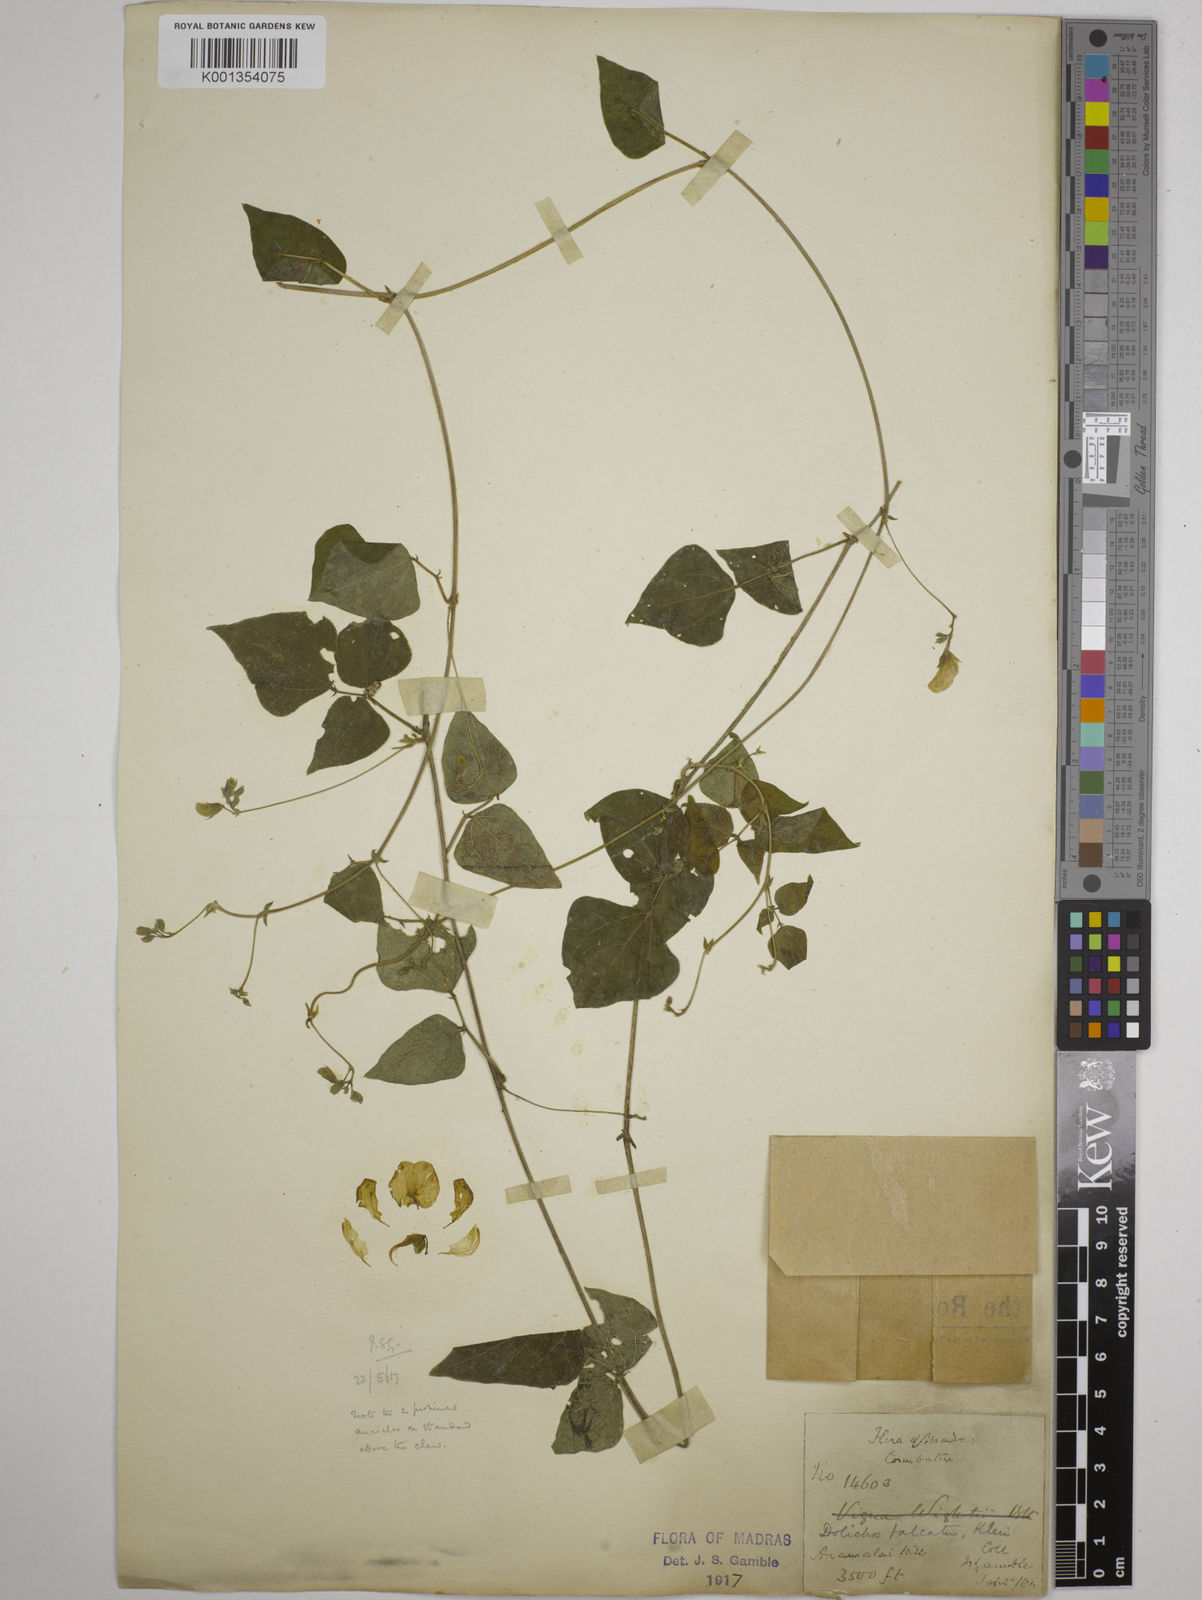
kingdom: Plantae
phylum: Tracheophyta
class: Magnoliopsida
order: Fabales
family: Fabaceae
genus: Dolichos
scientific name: Dolichos
